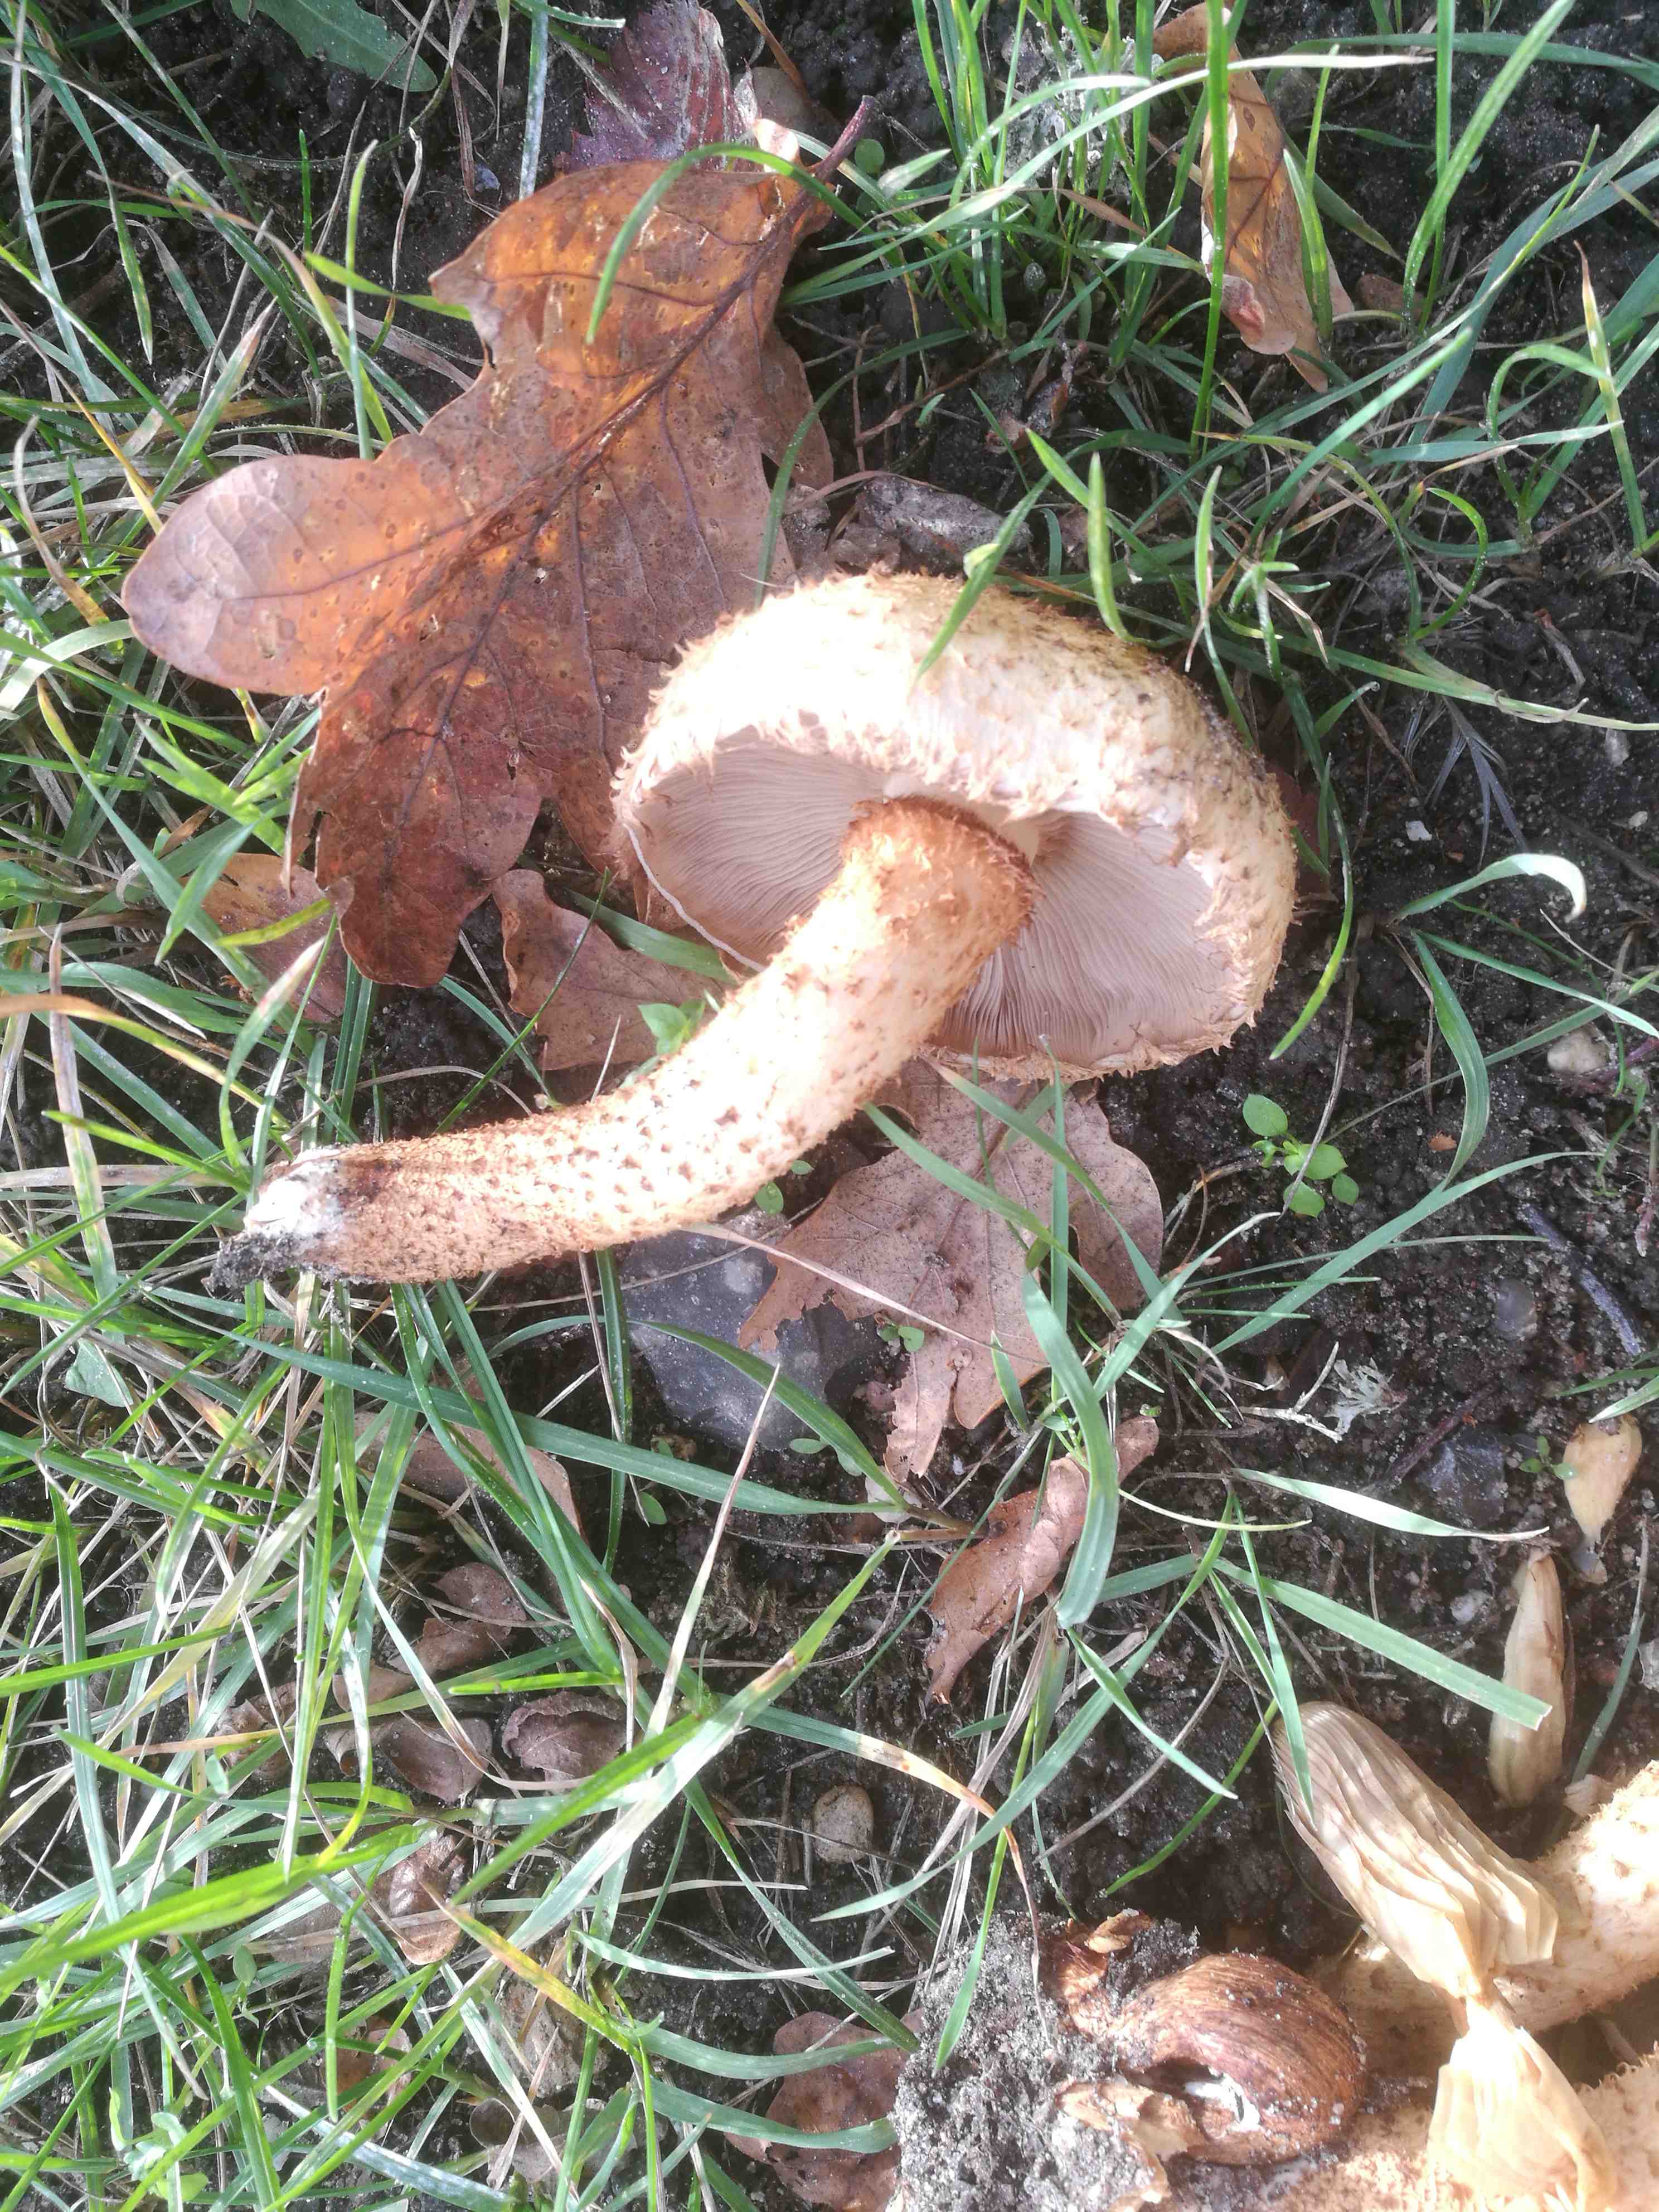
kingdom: Fungi
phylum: Basidiomycota
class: Agaricomycetes
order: Agaricales
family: Strophariaceae
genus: Pholiota
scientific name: Pholiota squarrosa
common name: krumskællet skælhat
